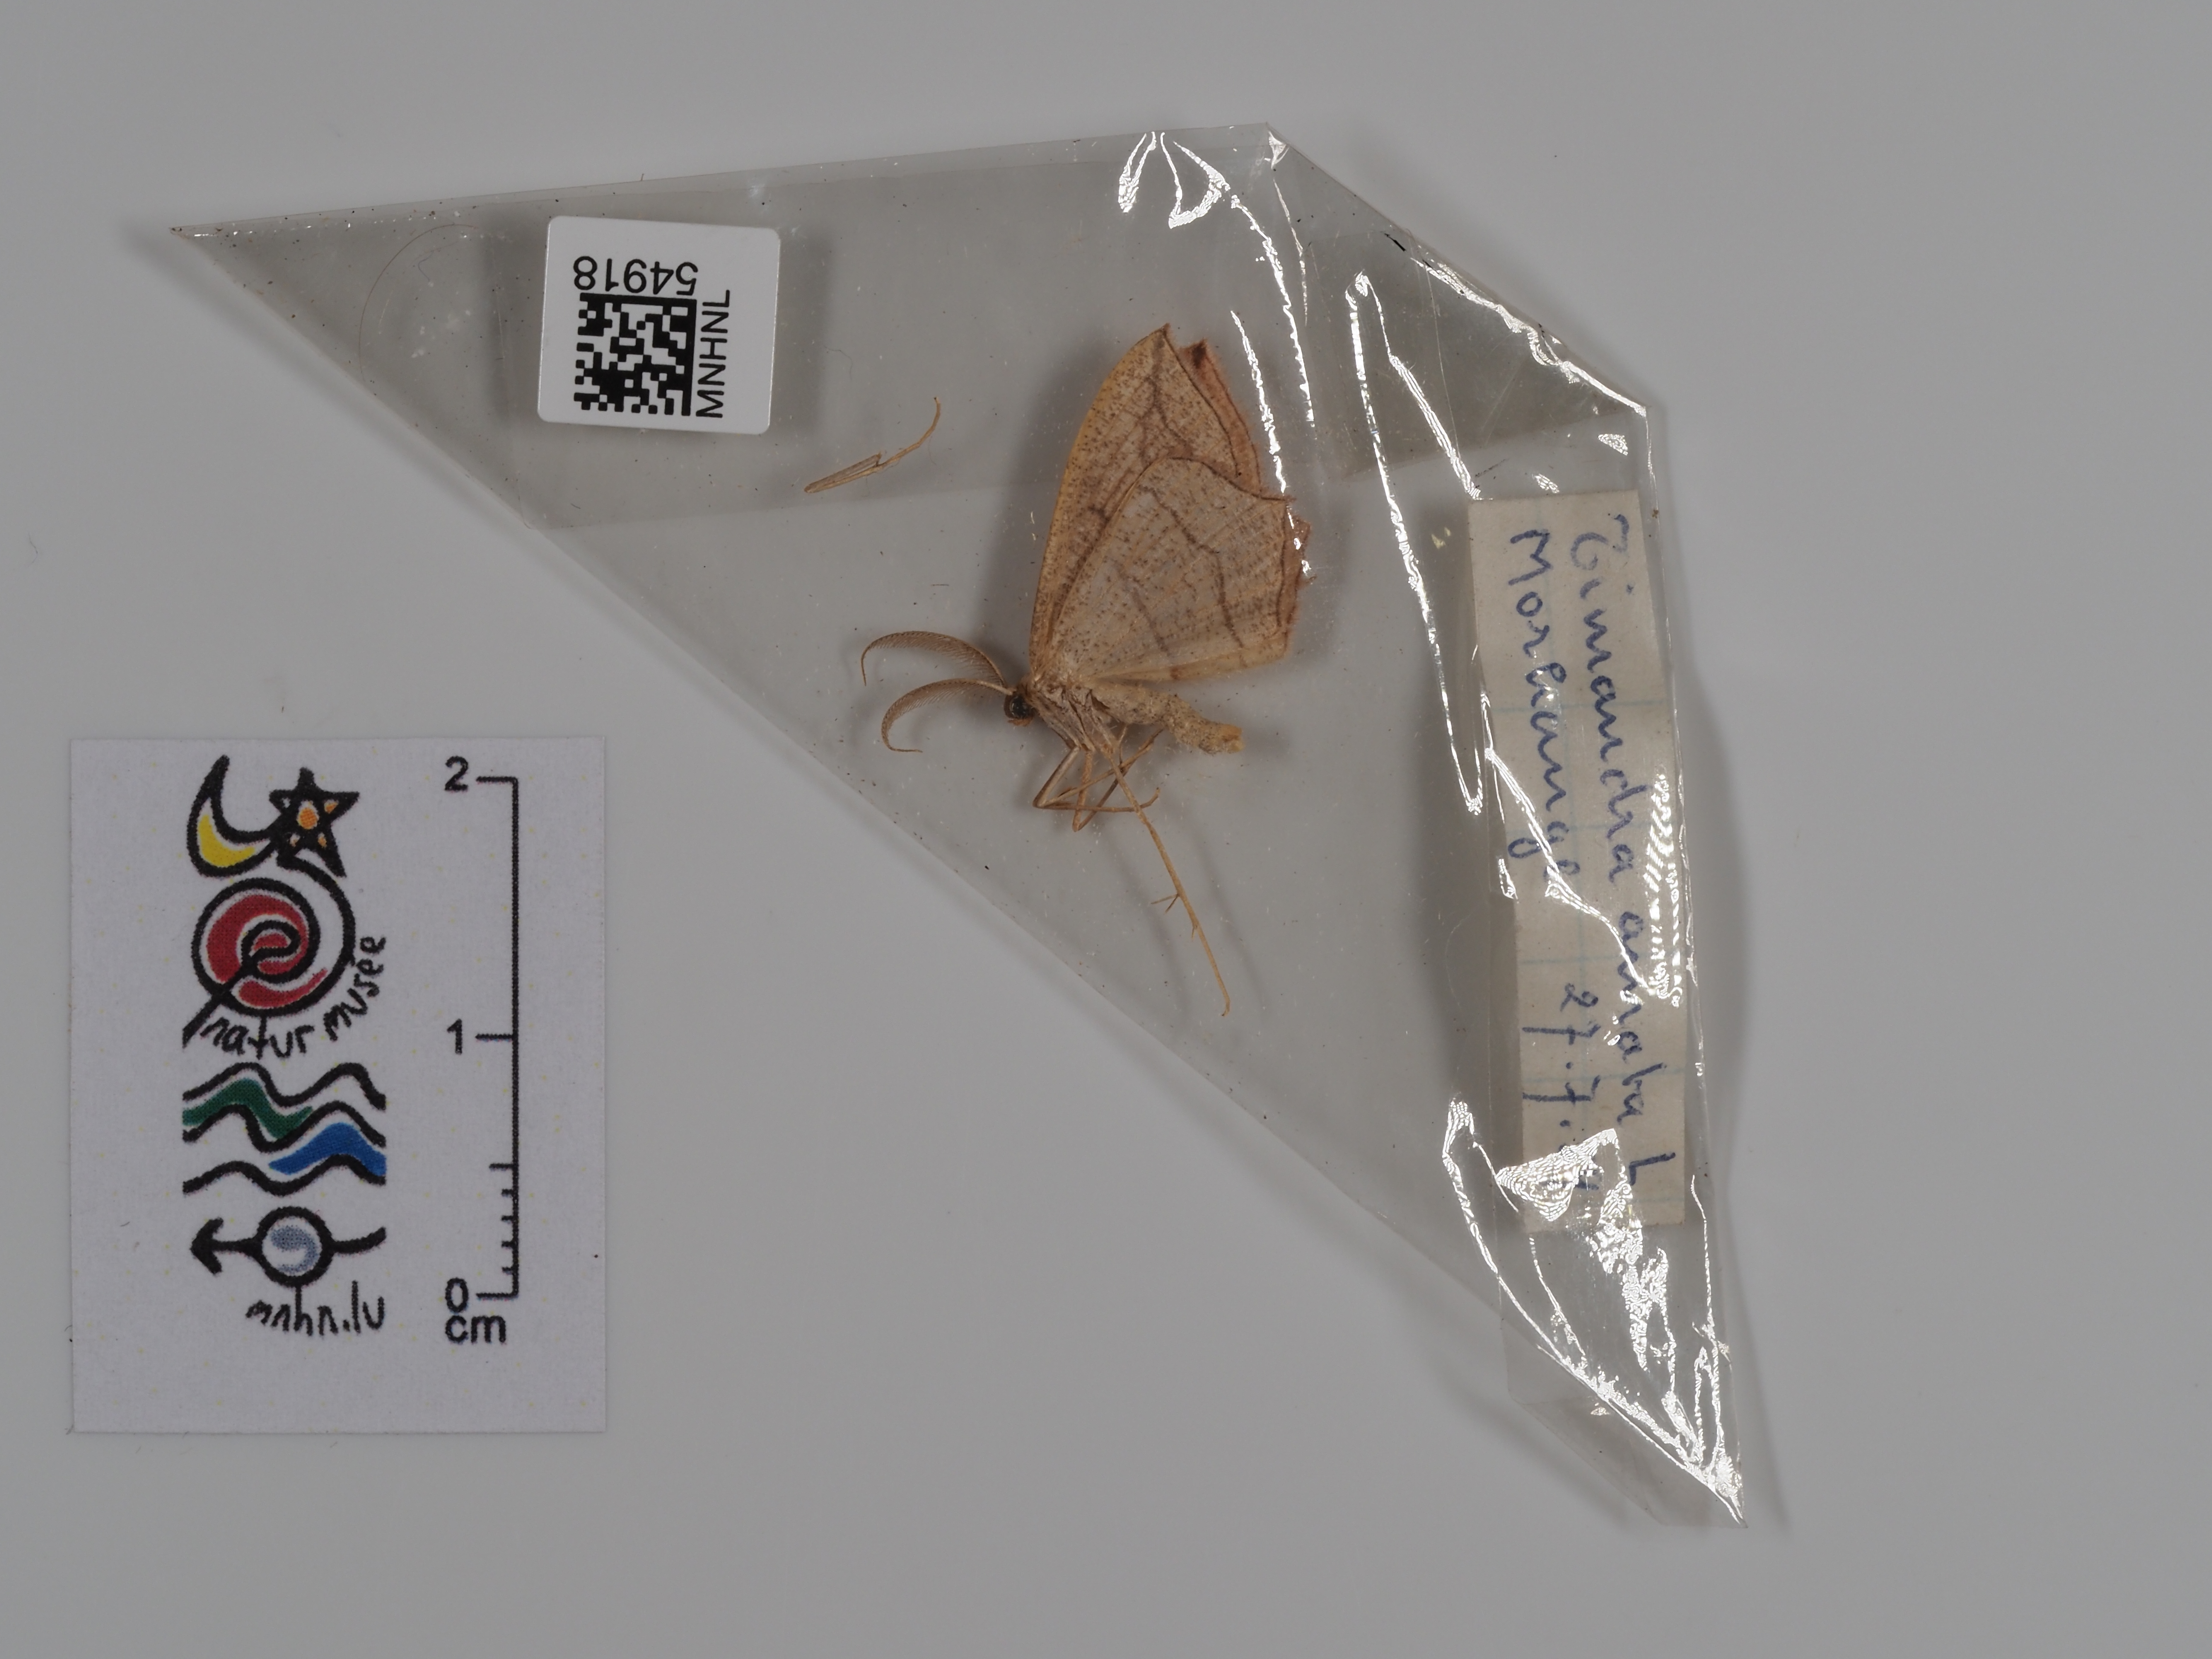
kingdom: Animalia
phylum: Arthropoda
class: Insecta
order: Lepidoptera
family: Geometridae
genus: Timandra
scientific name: Timandra griseata
